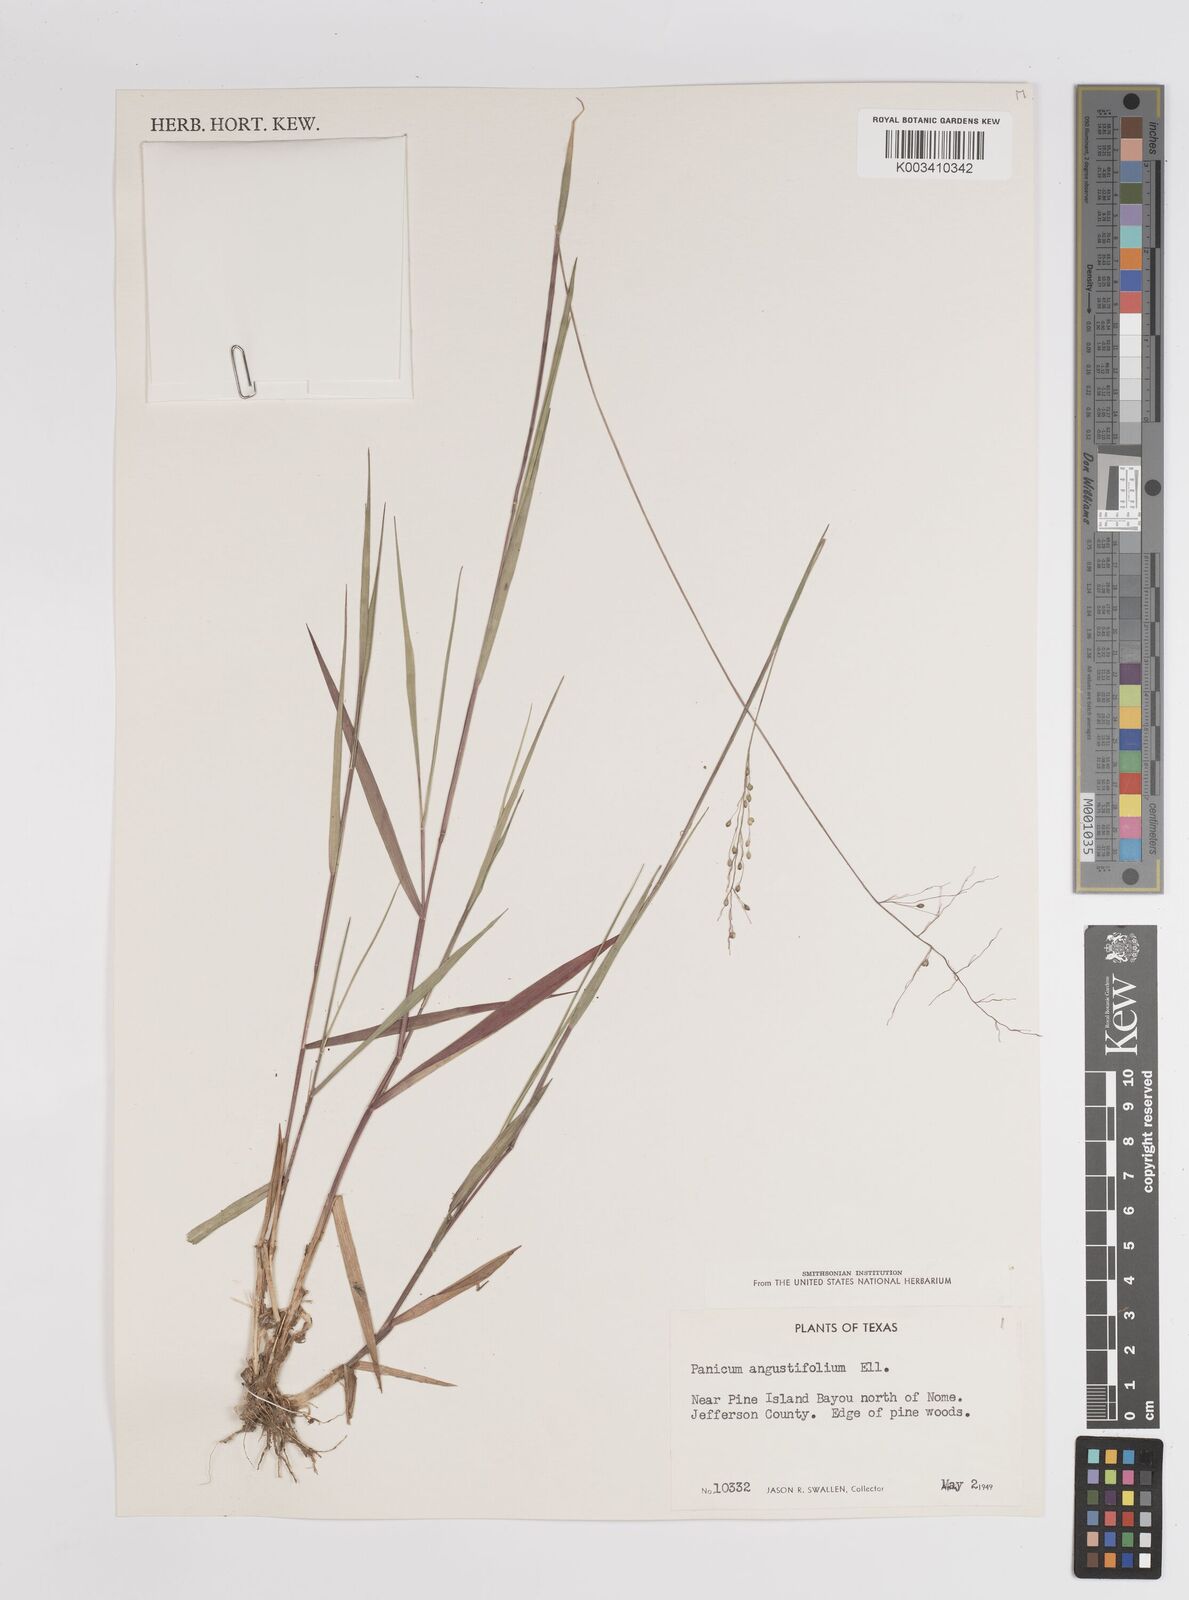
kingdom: Plantae
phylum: Tracheophyta
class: Liliopsida
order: Poales
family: Poaceae
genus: Dichanthelium
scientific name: Dichanthelium angustifolium
